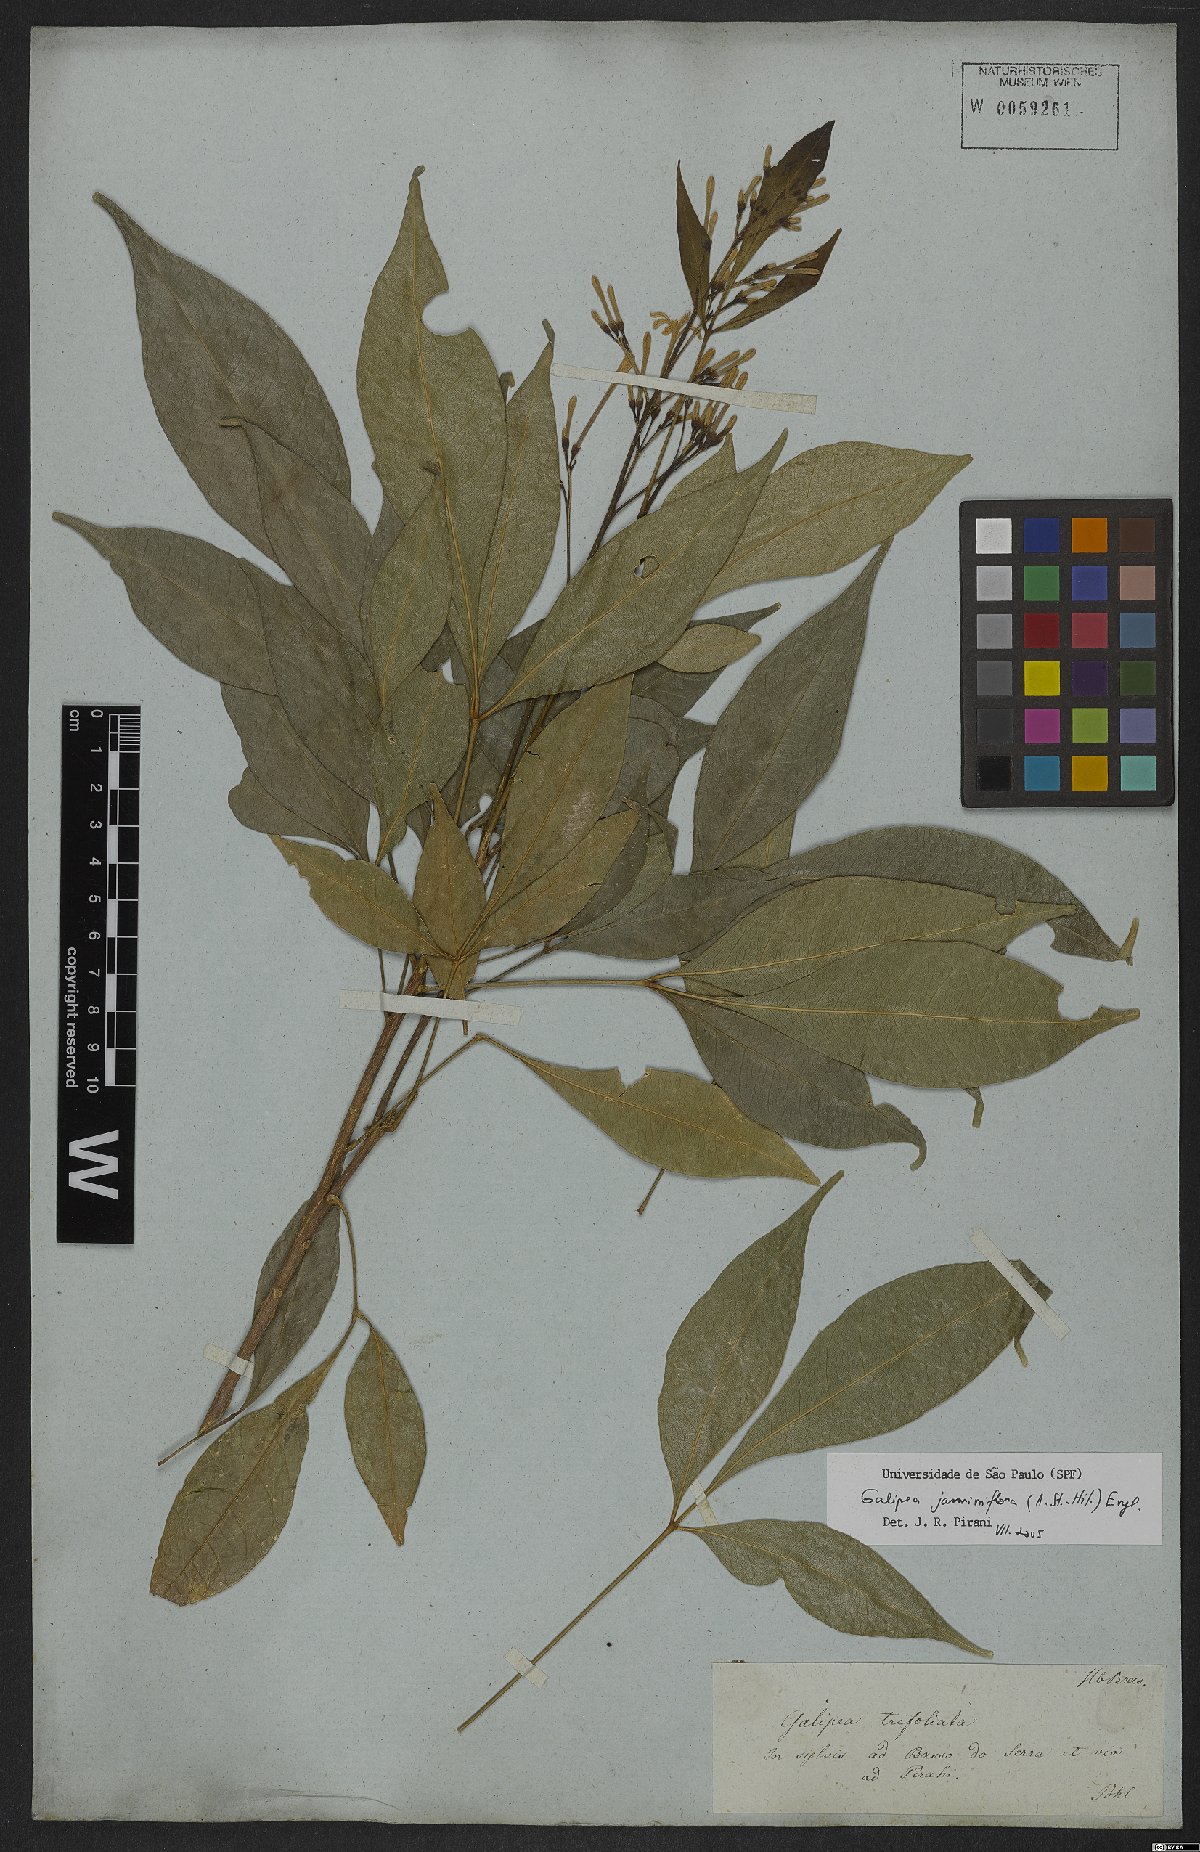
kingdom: Plantae
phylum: Tracheophyta
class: Magnoliopsida
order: Sapindales
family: Rutaceae
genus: Galipea
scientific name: Galipea jasminiflora
